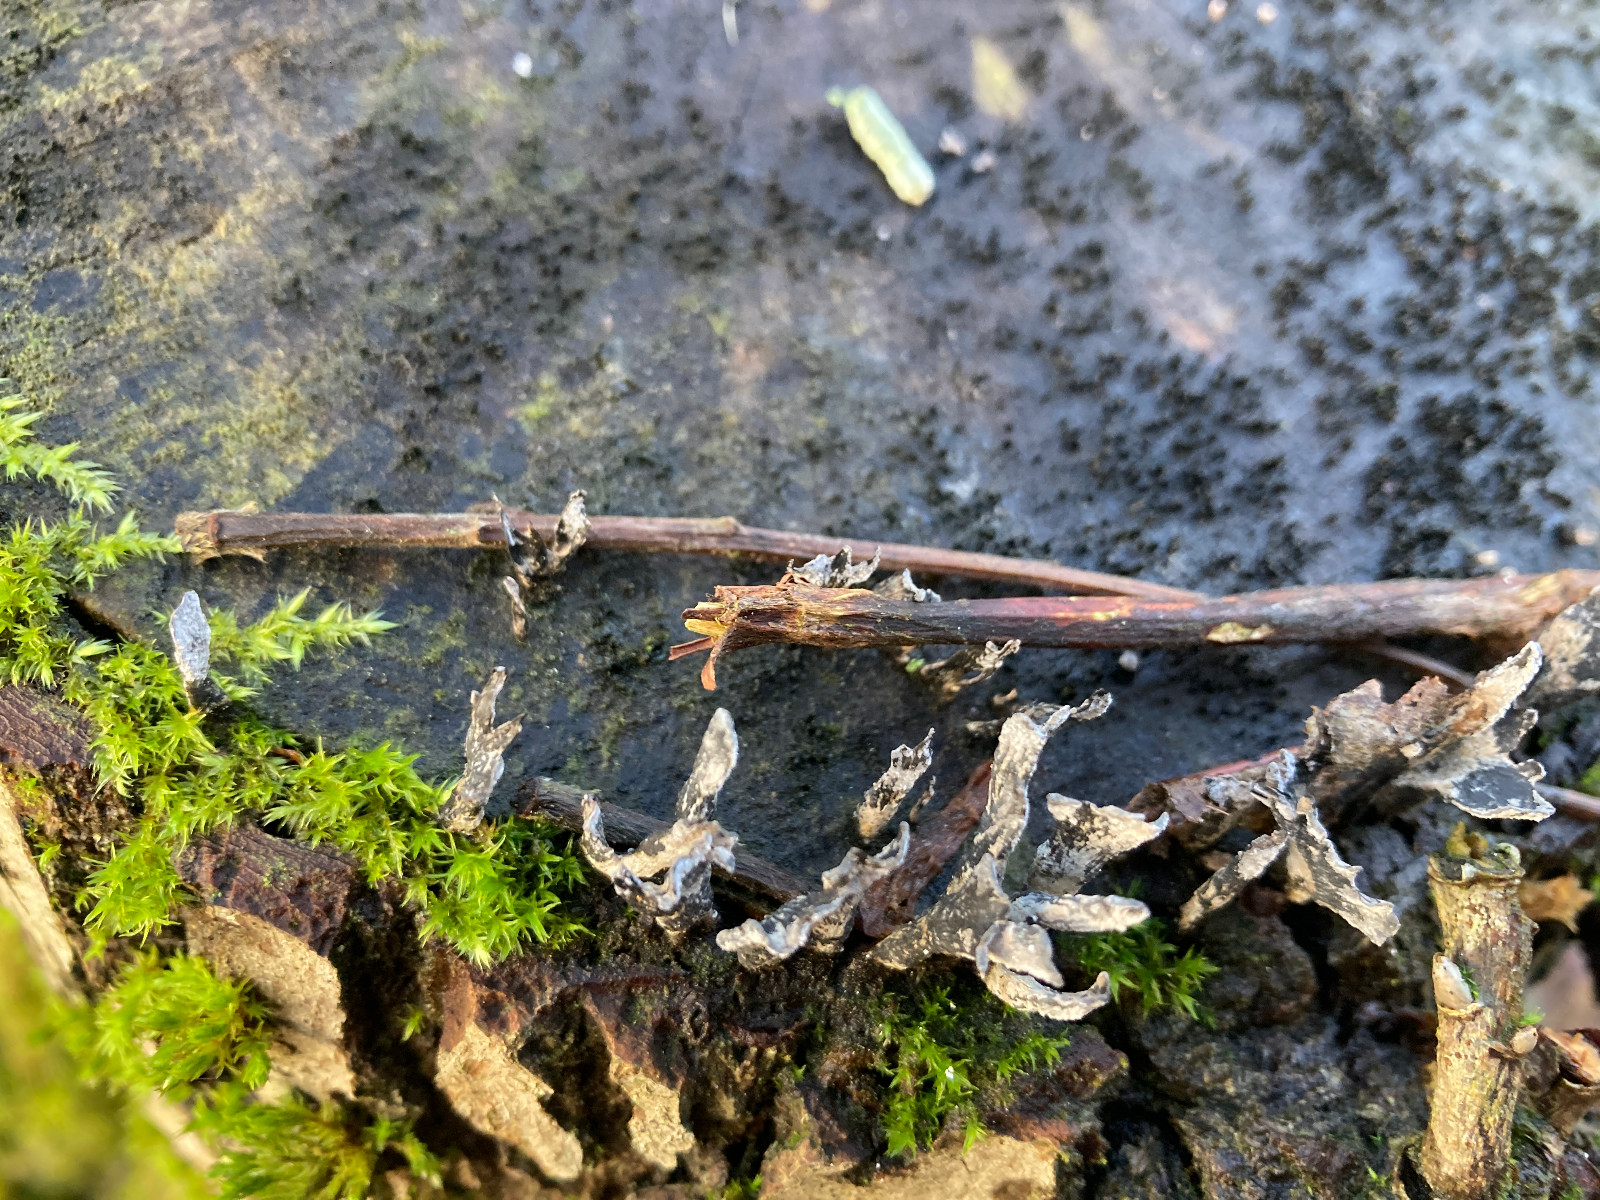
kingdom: Fungi
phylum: Ascomycota
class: Sordariomycetes
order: Xylariales
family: Xylariaceae
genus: Xylaria
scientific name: Xylaria hypoxylon
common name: grenet stødsvamp
